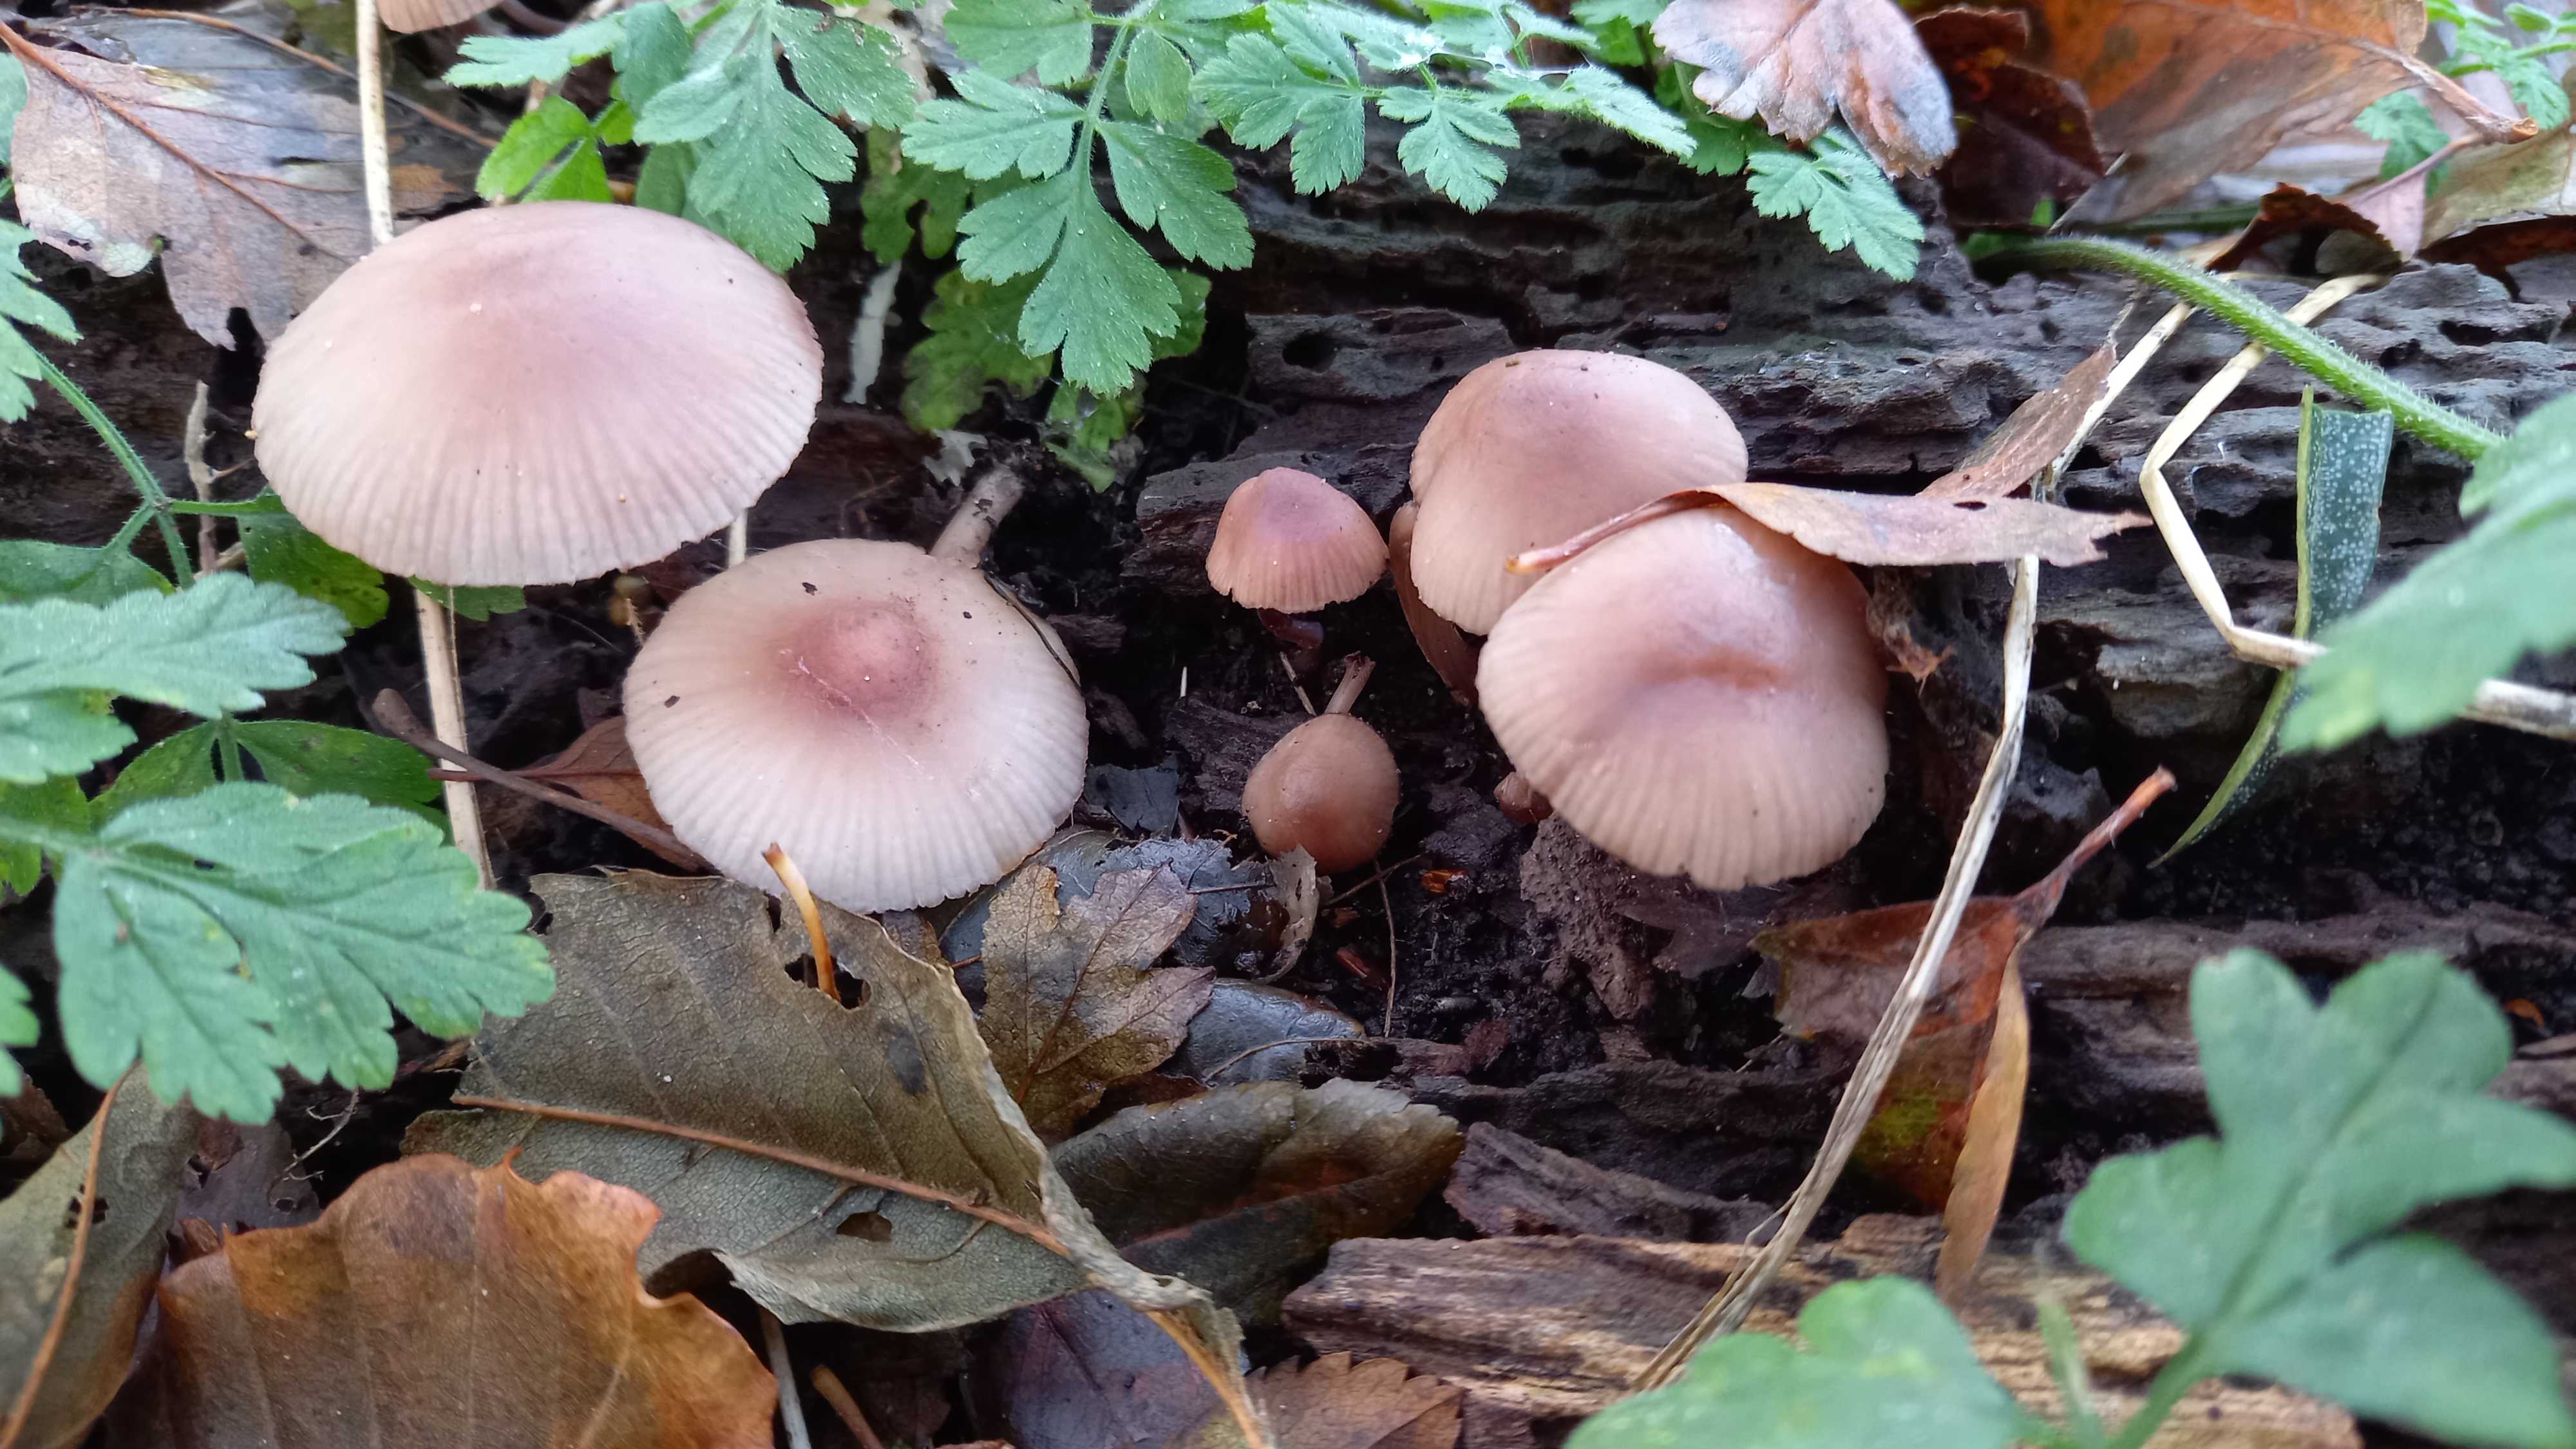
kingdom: Fungi
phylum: Basidiomycota
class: Agaricomycetes
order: Agaricales
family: Mycenaceae
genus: Mycena
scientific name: Mycena haematopus
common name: blødende huesvamp
